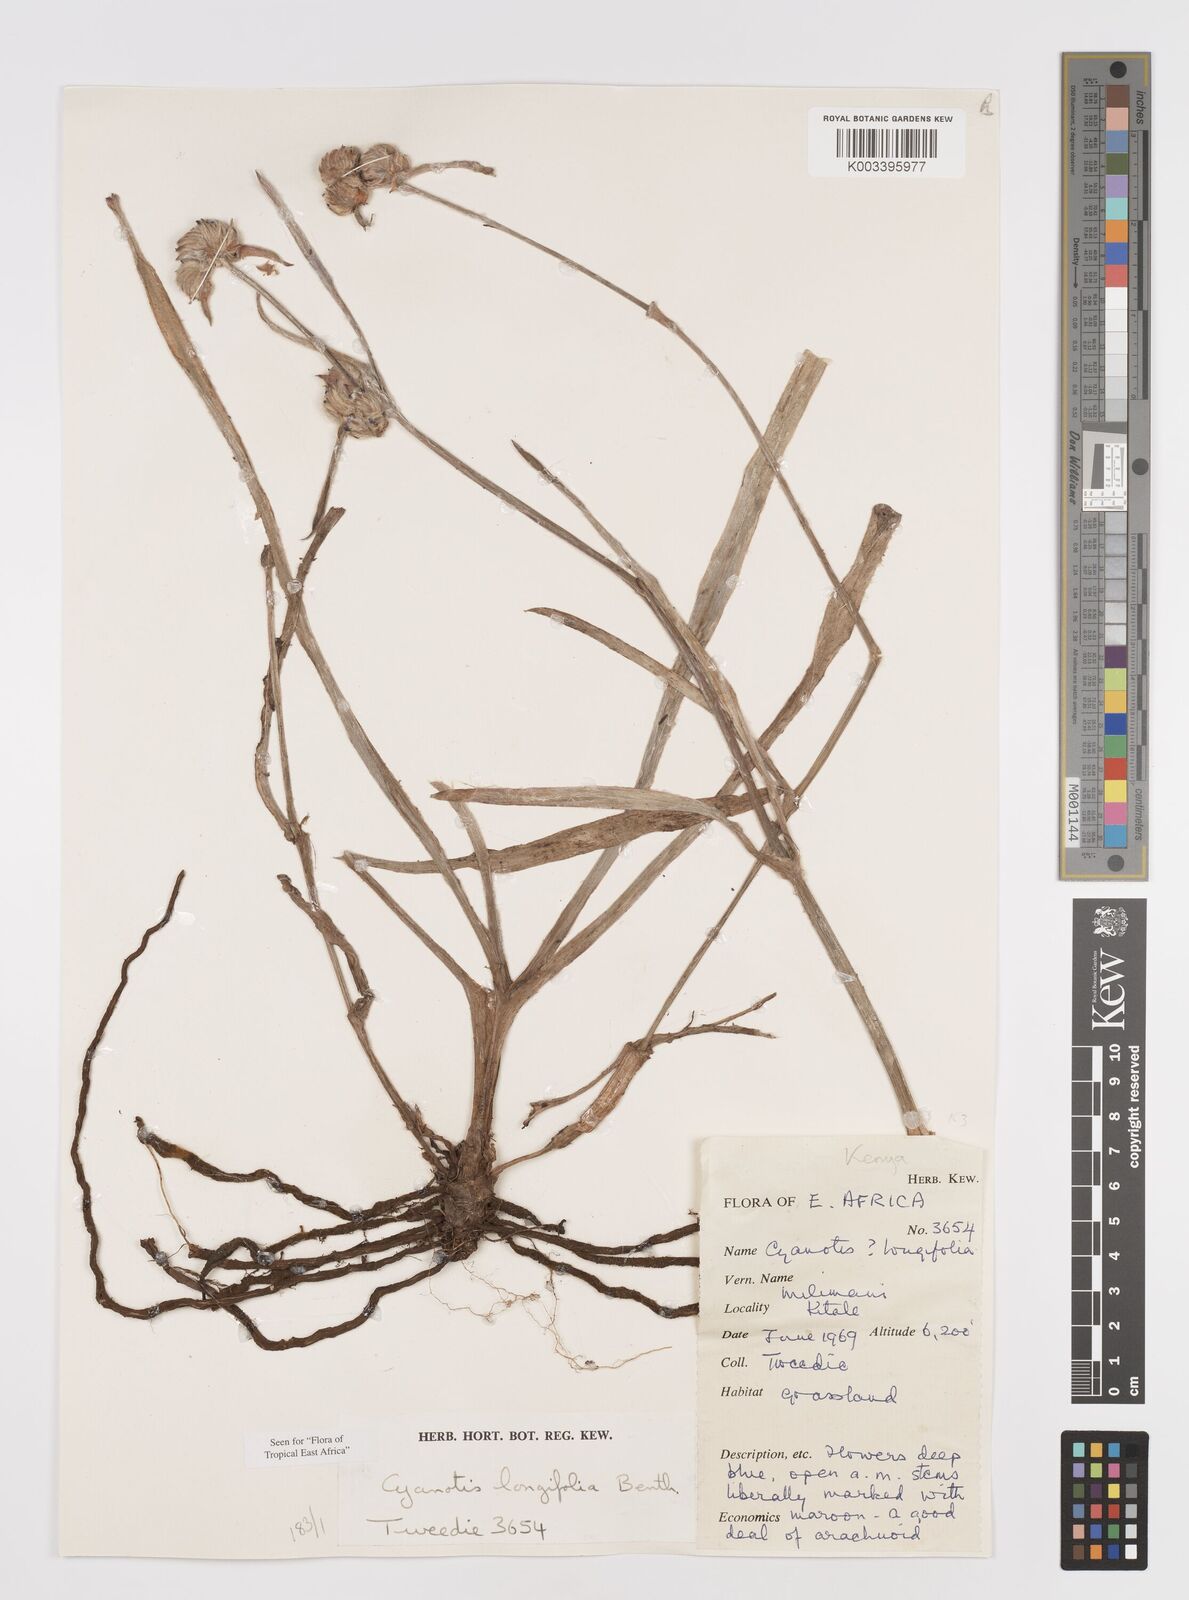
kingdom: Plantae
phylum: Tracheophyta
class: Liliopsida
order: Commelinales
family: Commelinaceae
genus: Cyanotis
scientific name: Cyanotis longifolia
